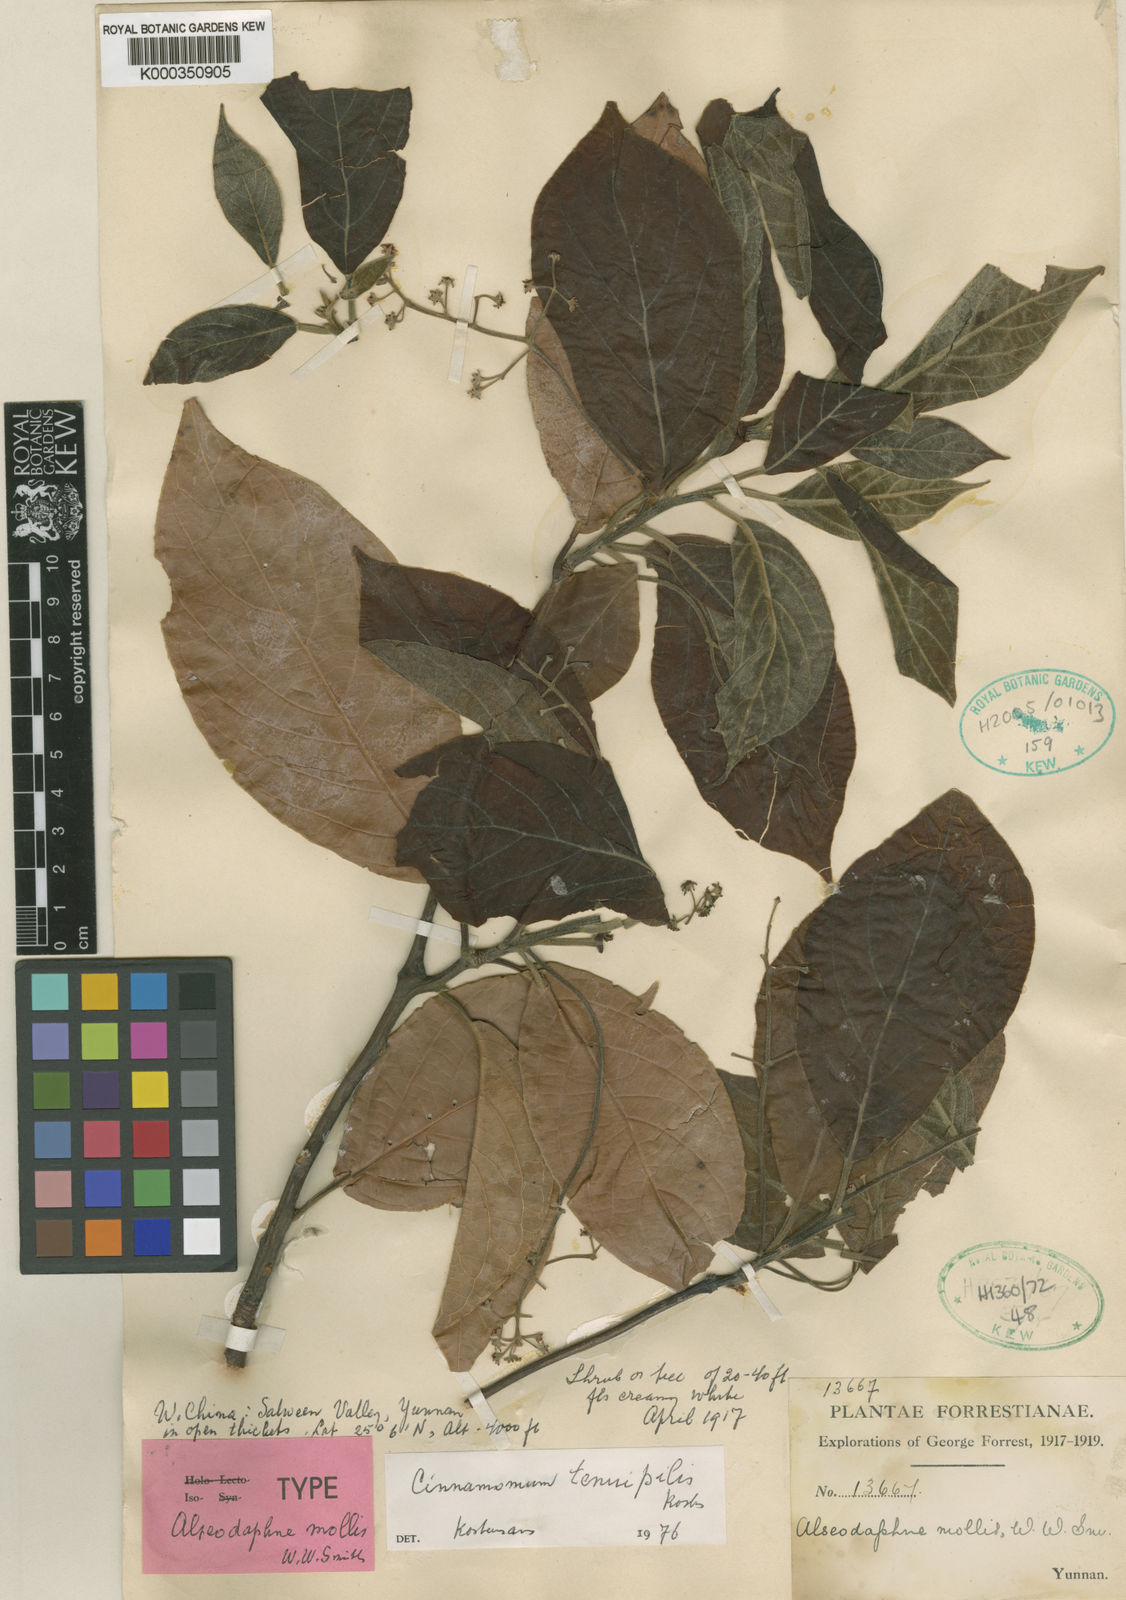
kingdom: Plantae
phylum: Tracheophyta
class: Magnoliopsida
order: Laurales
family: Lauraceae
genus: Cinnamomum
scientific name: Cinnamomum tenuipile
